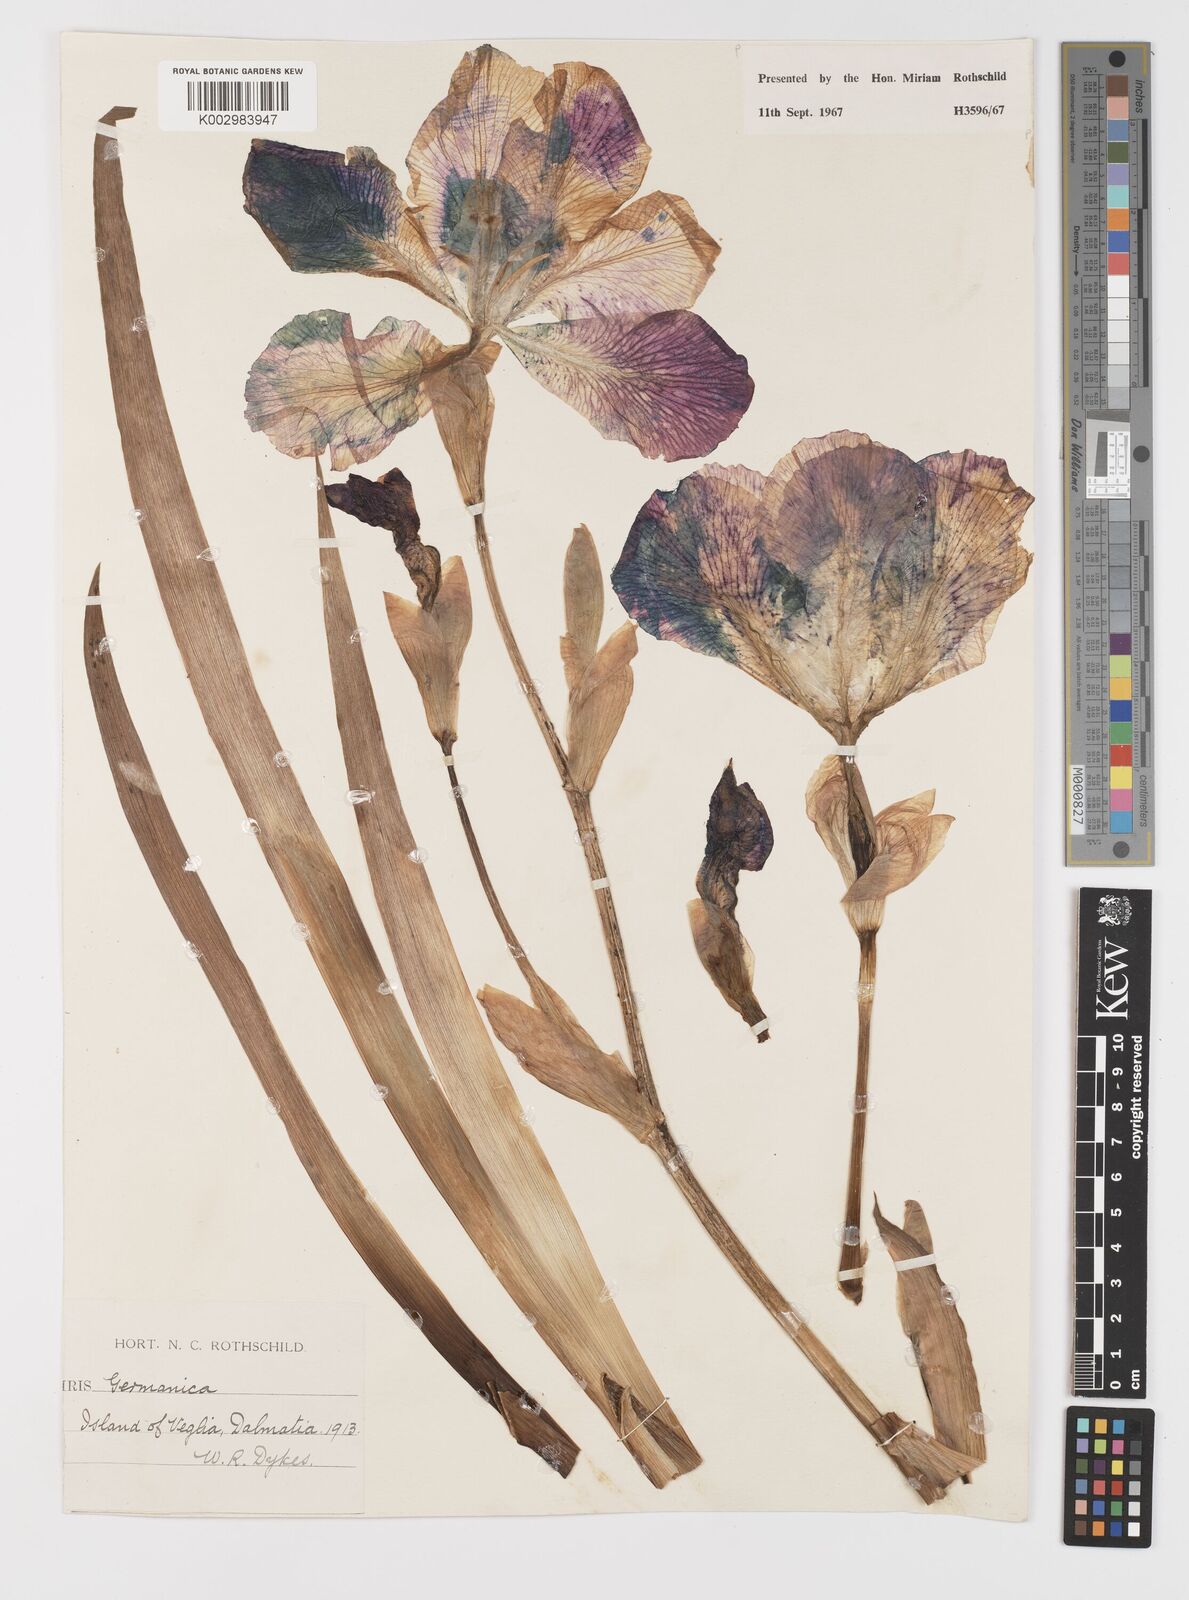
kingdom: Plantae
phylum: Tracheophyta
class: Liliopsida
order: Asparagales
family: Iridaceae
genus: Iris
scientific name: Iris germanica
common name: German iris
